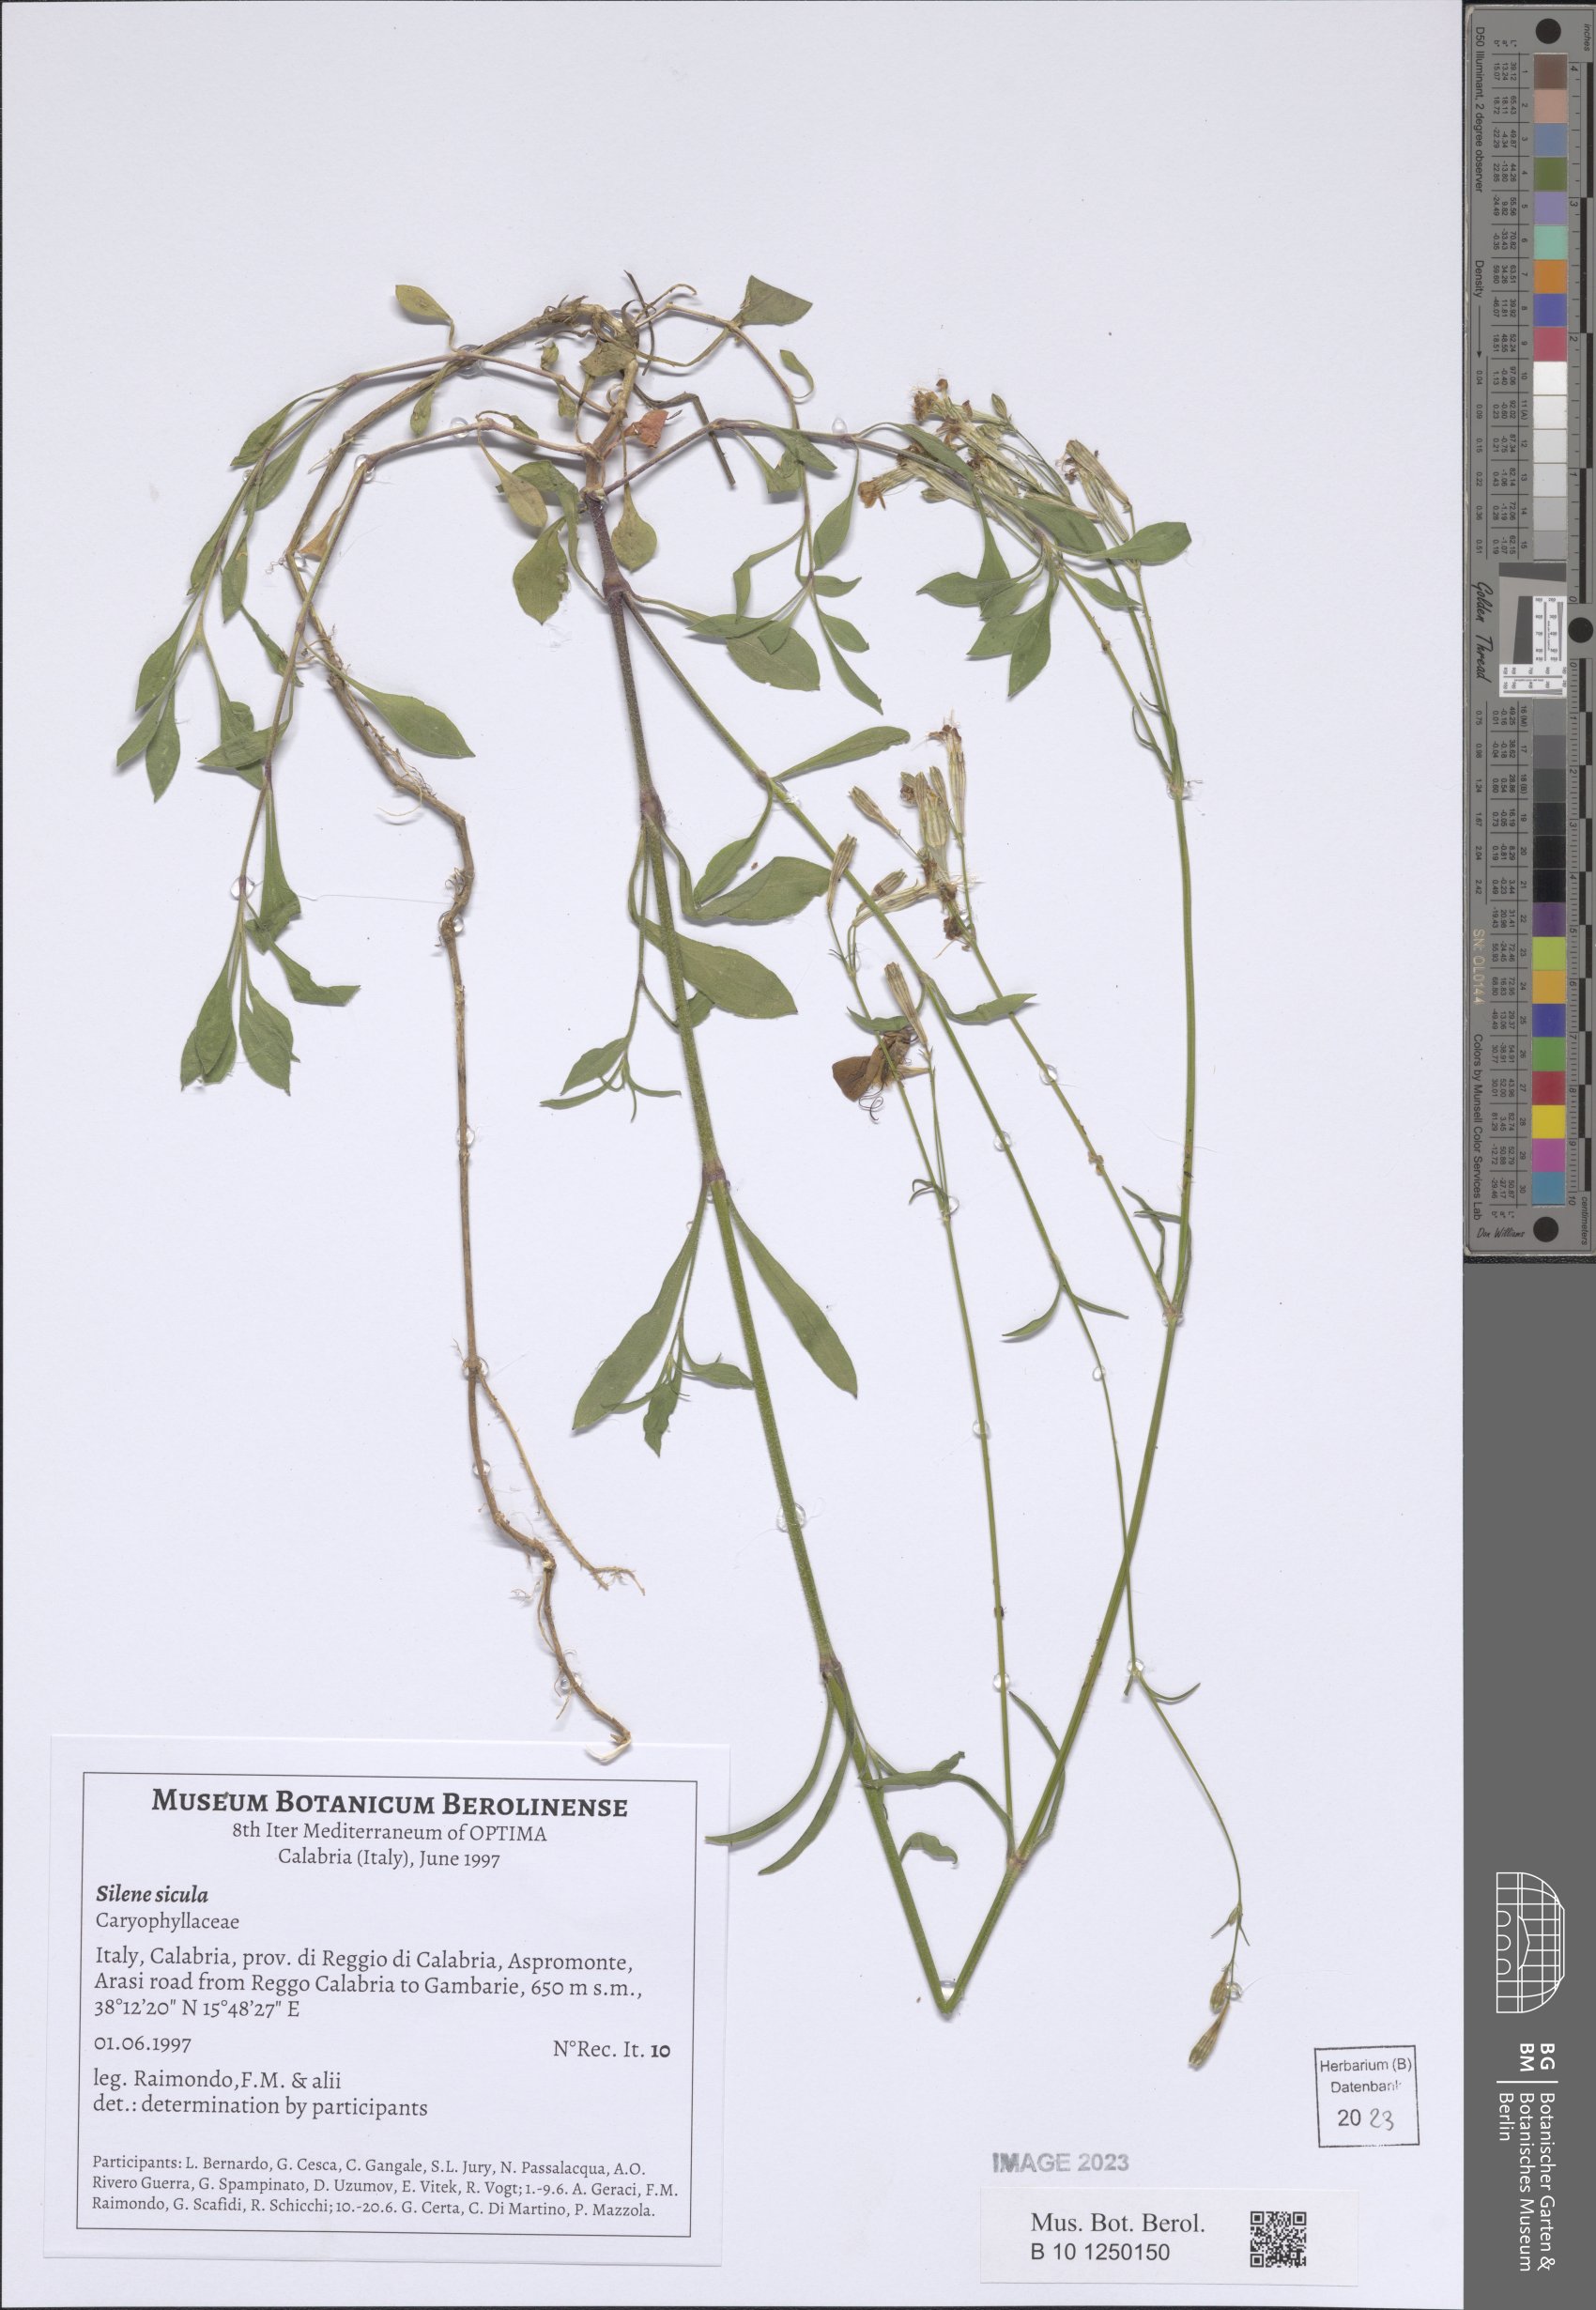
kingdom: Plantae
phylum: Tracheophyta
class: Magnoliopsida
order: Caryophyllales
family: Caryophyllaceae
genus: Silene
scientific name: Silene italica
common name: Italian catchfly
